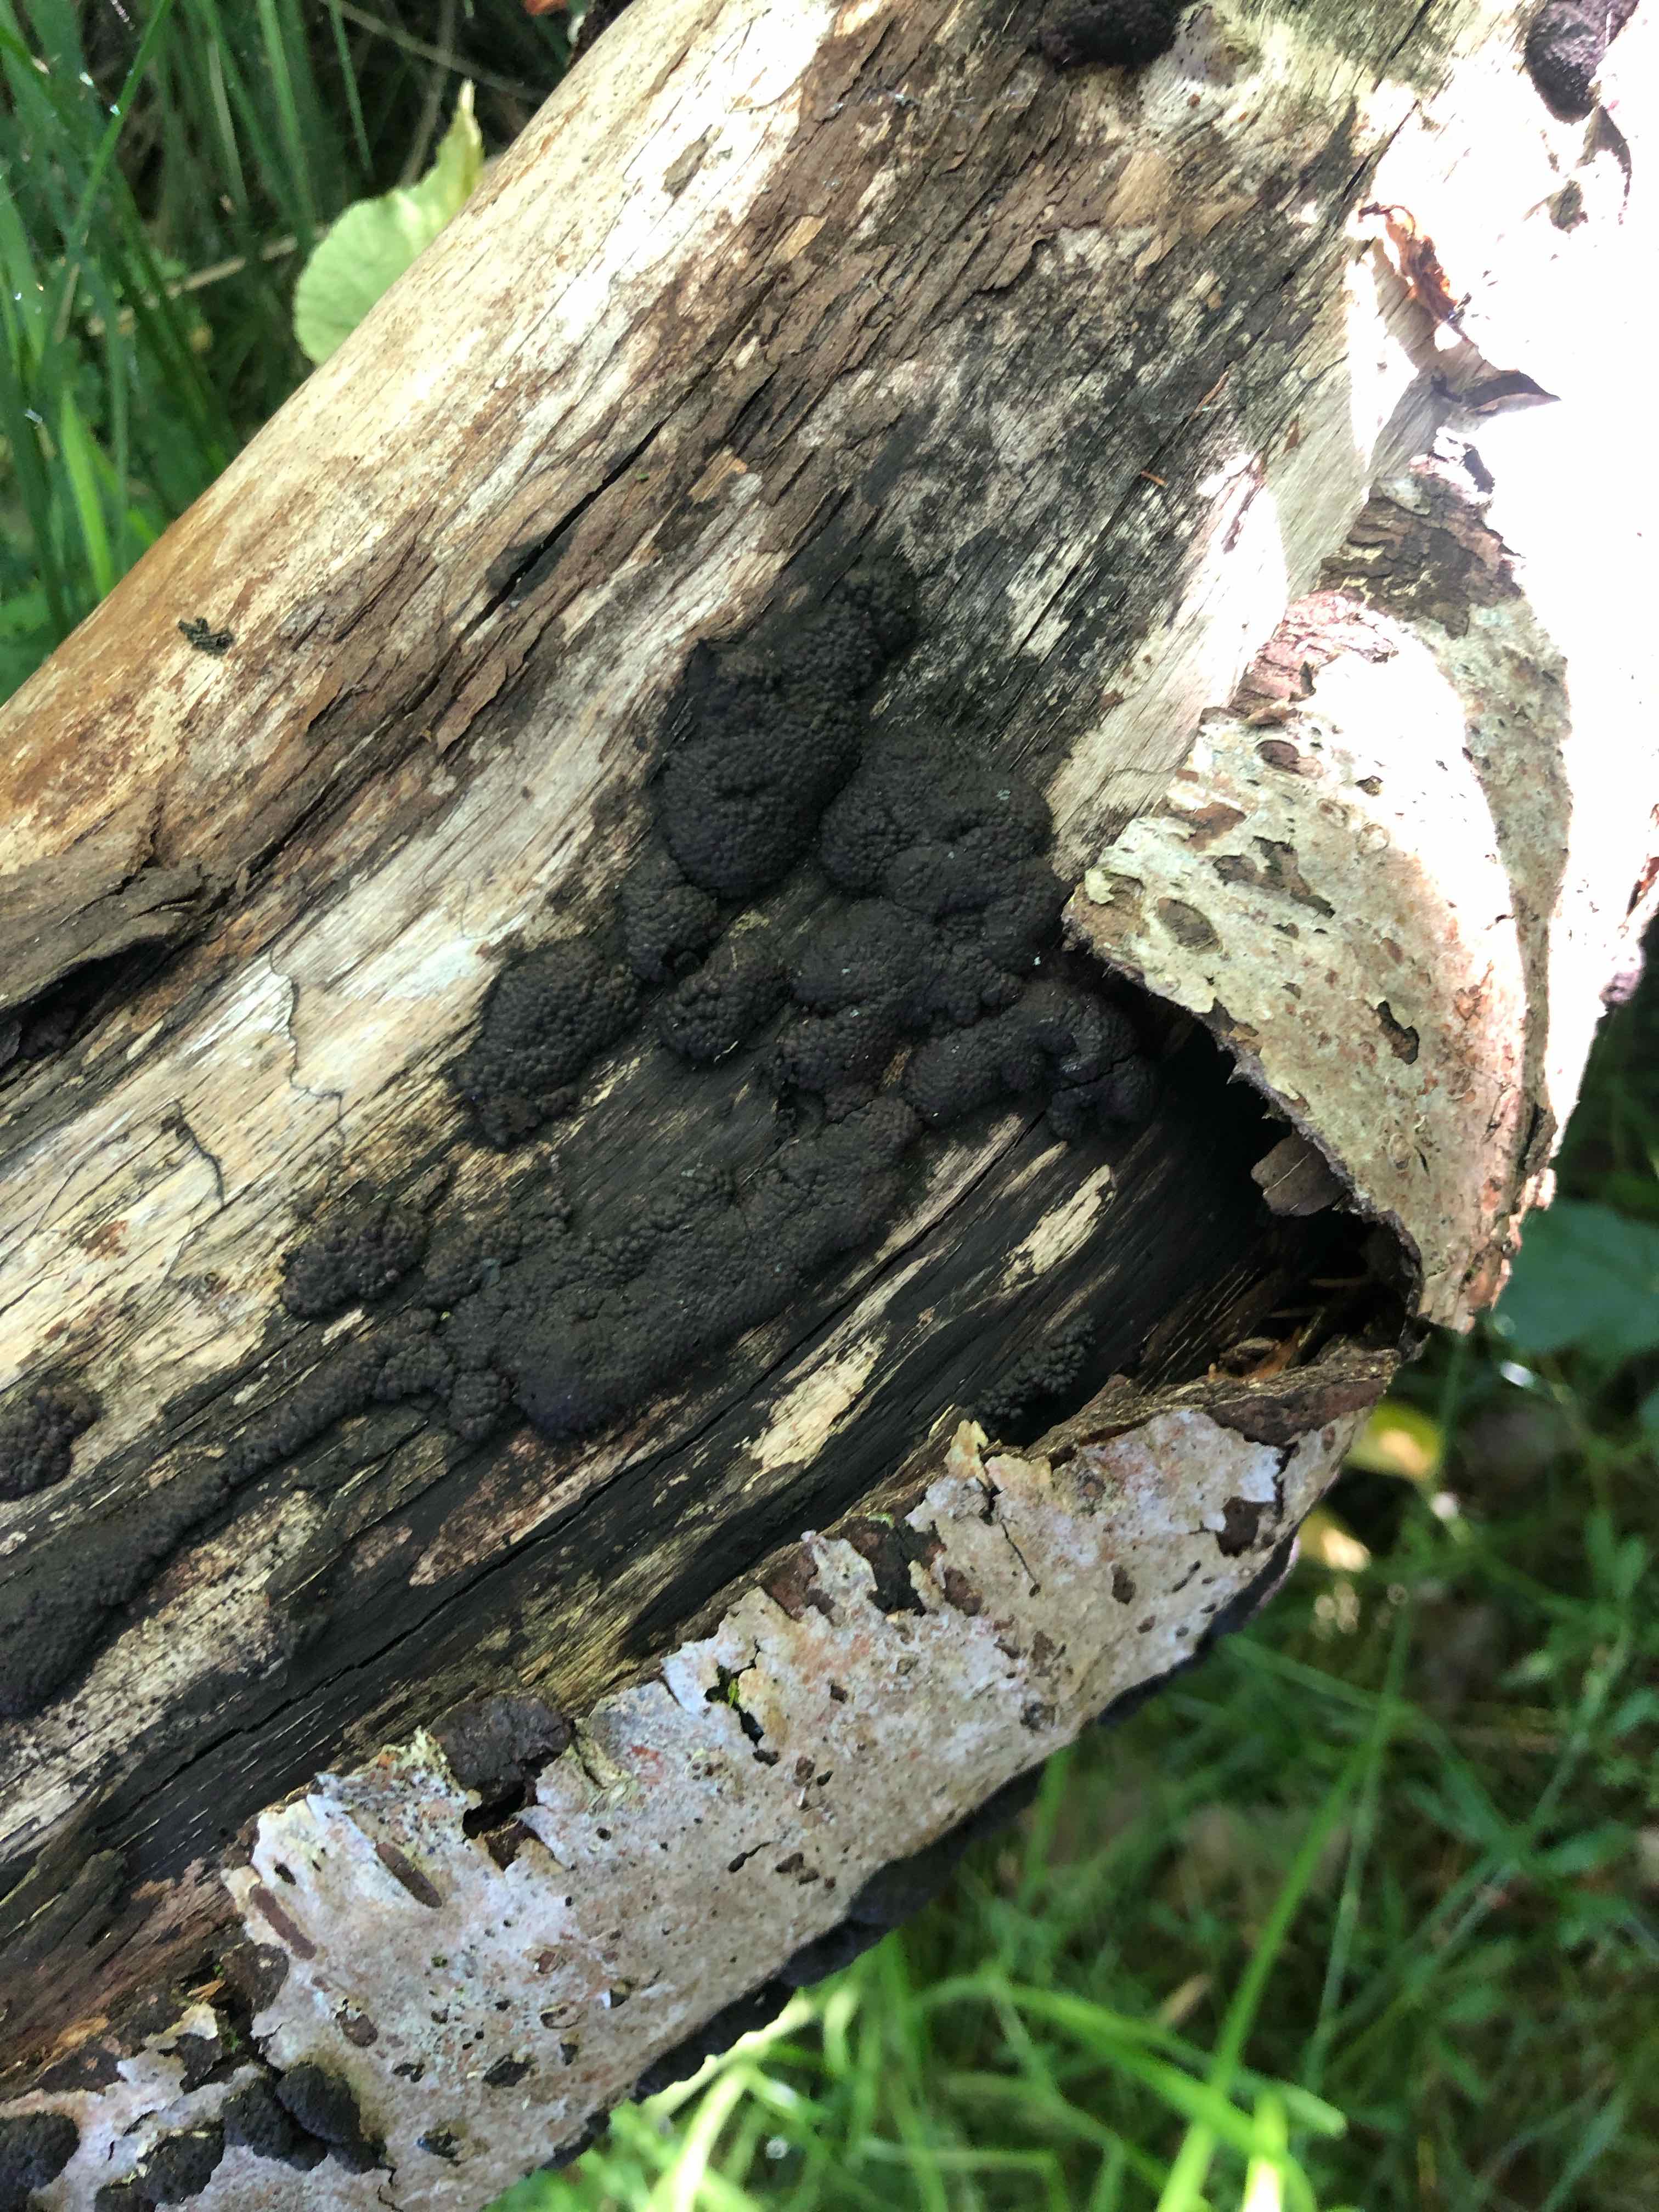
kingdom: Fungi
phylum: Ascomycota
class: Sordariomycetes
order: Xylariales
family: Hypoxylaceae
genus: Jackrogersella
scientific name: Jackrogersella multiformis
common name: foranderlig kulbær
